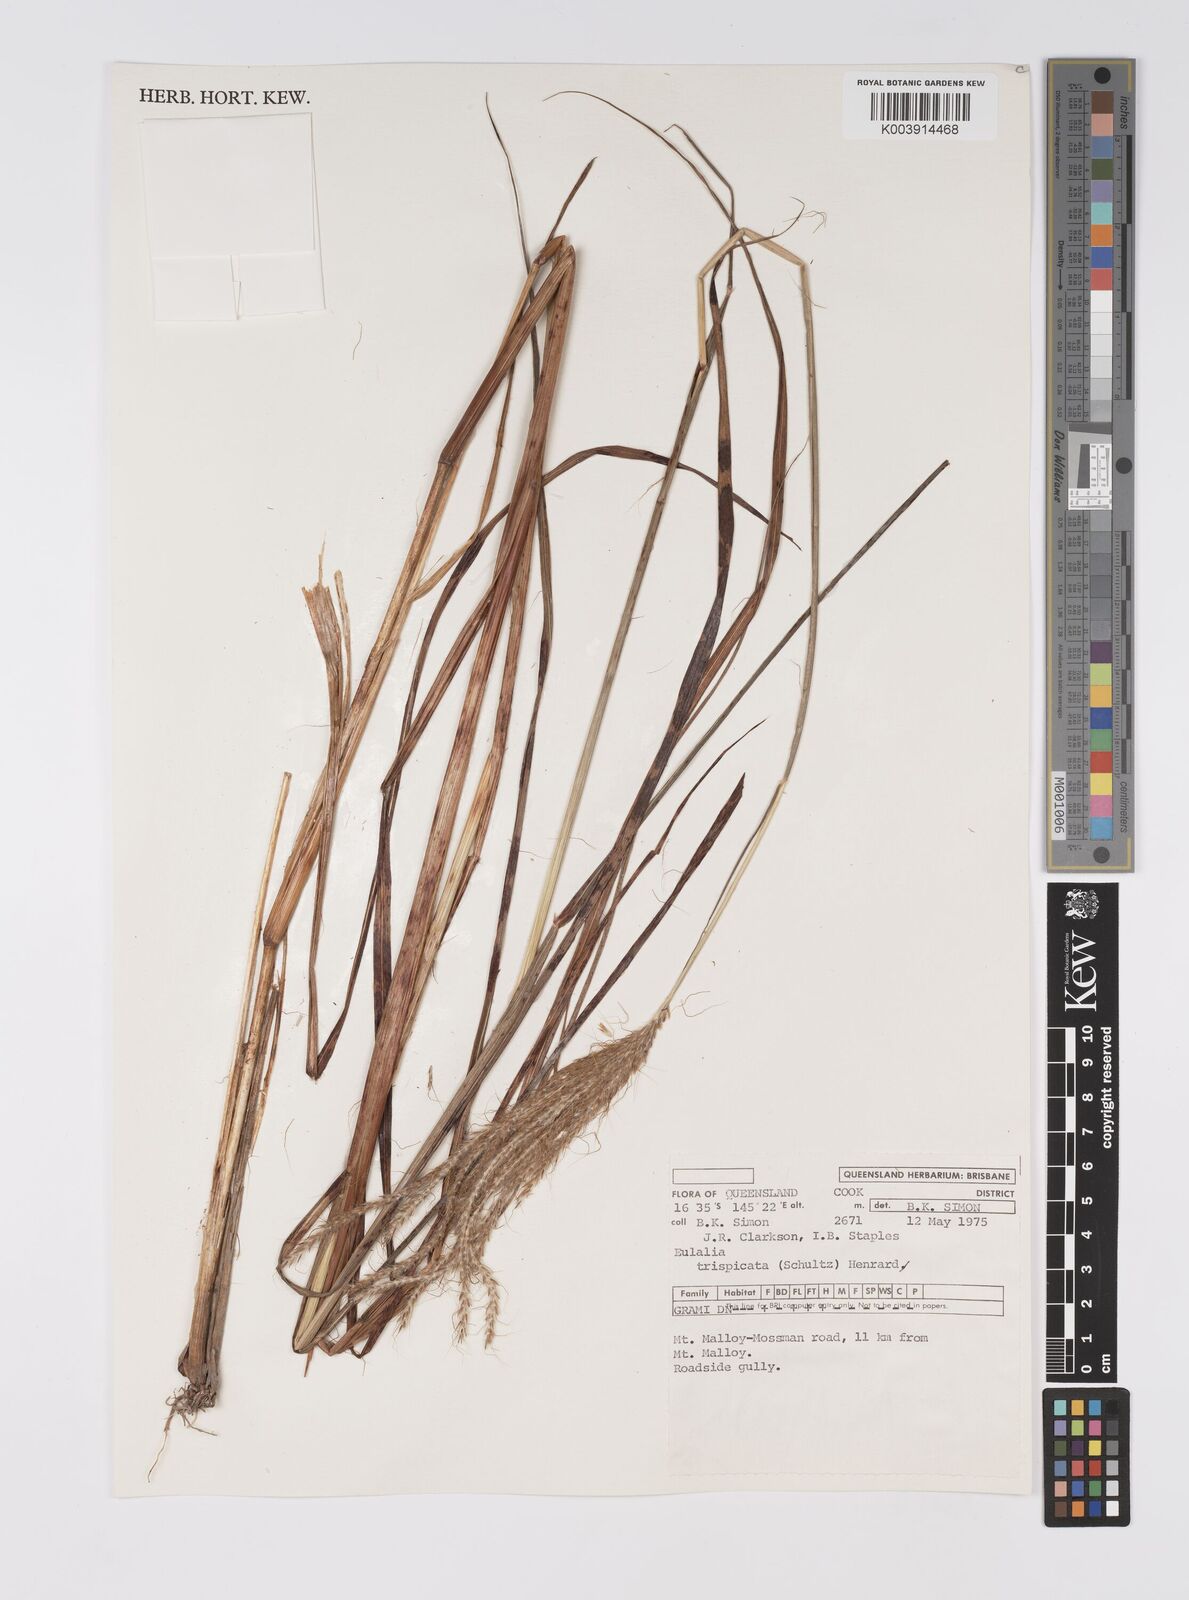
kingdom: Plantae
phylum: Tracheophyta
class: Liliopsida
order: Poales
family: Poaceae
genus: Pseudopogonatherum
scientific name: Pseudopogonatherum trispicatum
